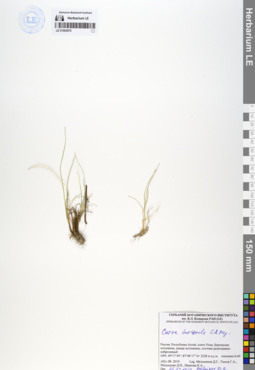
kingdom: Plantae
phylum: Tracheophyta
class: Liliopsida
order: Poales
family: Cyperaceae
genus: Carex
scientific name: Carex duriuscula
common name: Involute-leaved sedge
